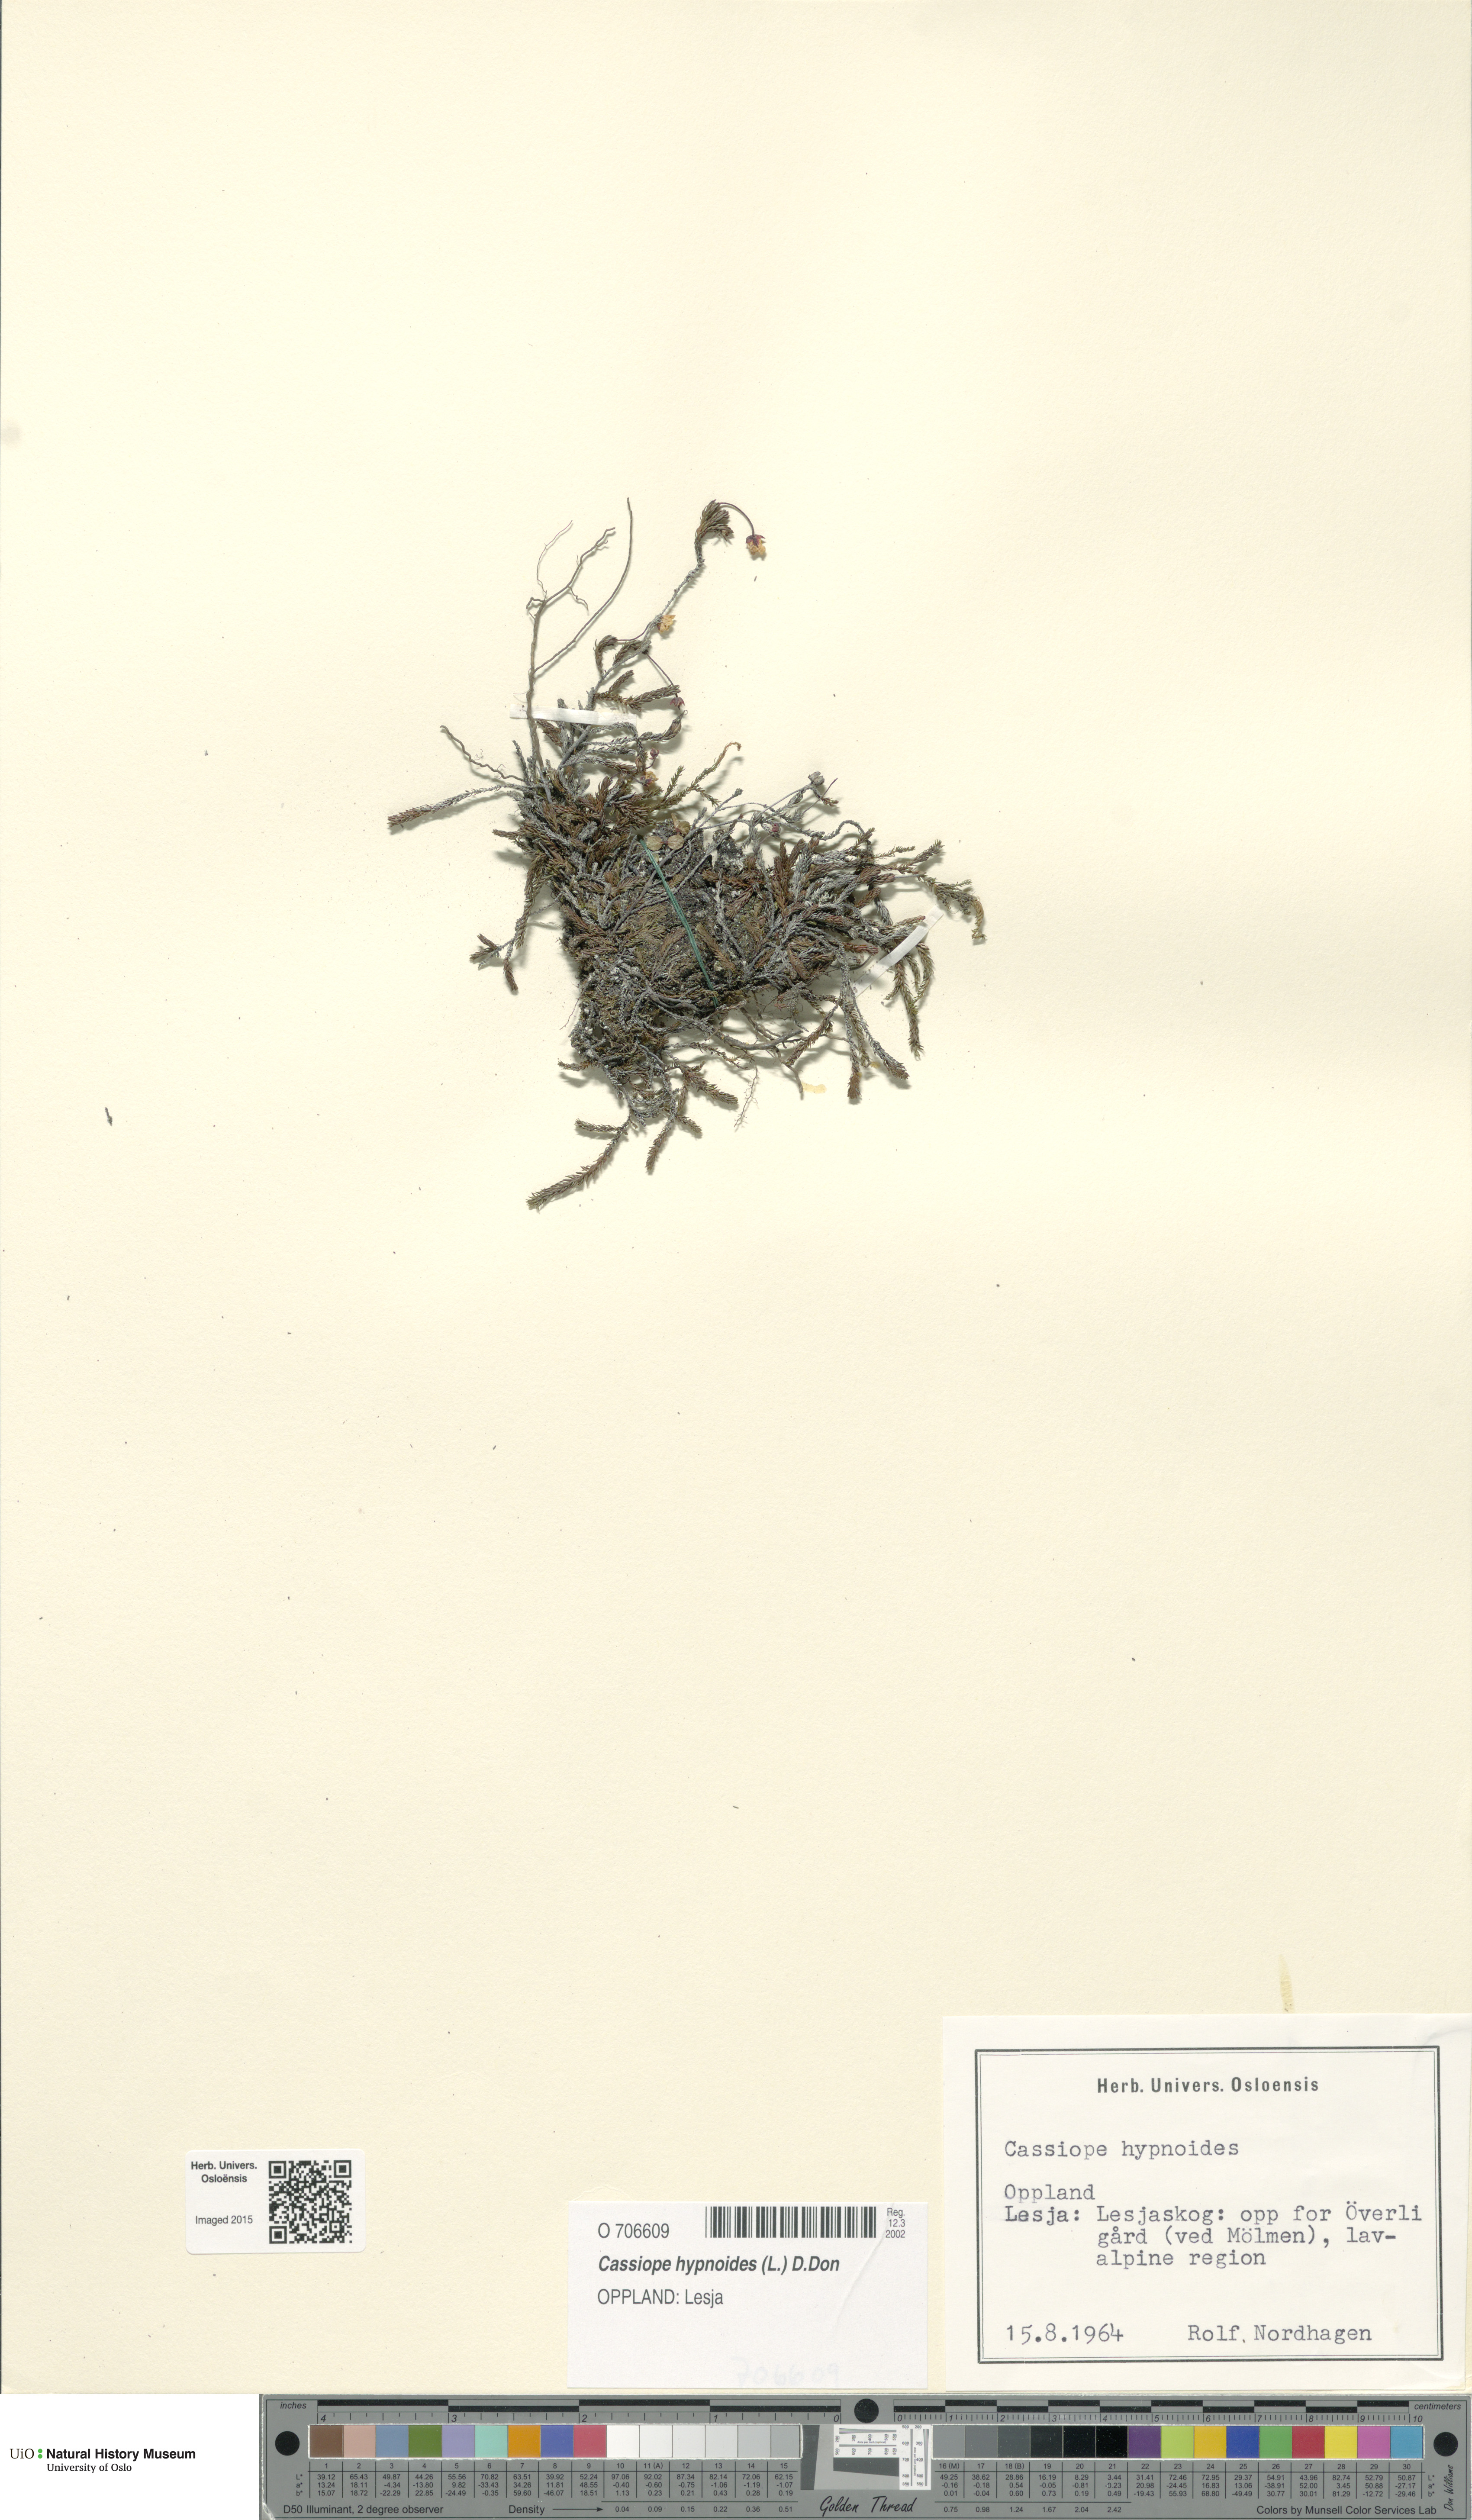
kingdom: Plantae
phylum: Tracheophyta
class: Magnoliopsida
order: Ericales
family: Ericaceae
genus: Harrimanella
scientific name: Harrimanella hypnoides
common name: Moss bell heather
